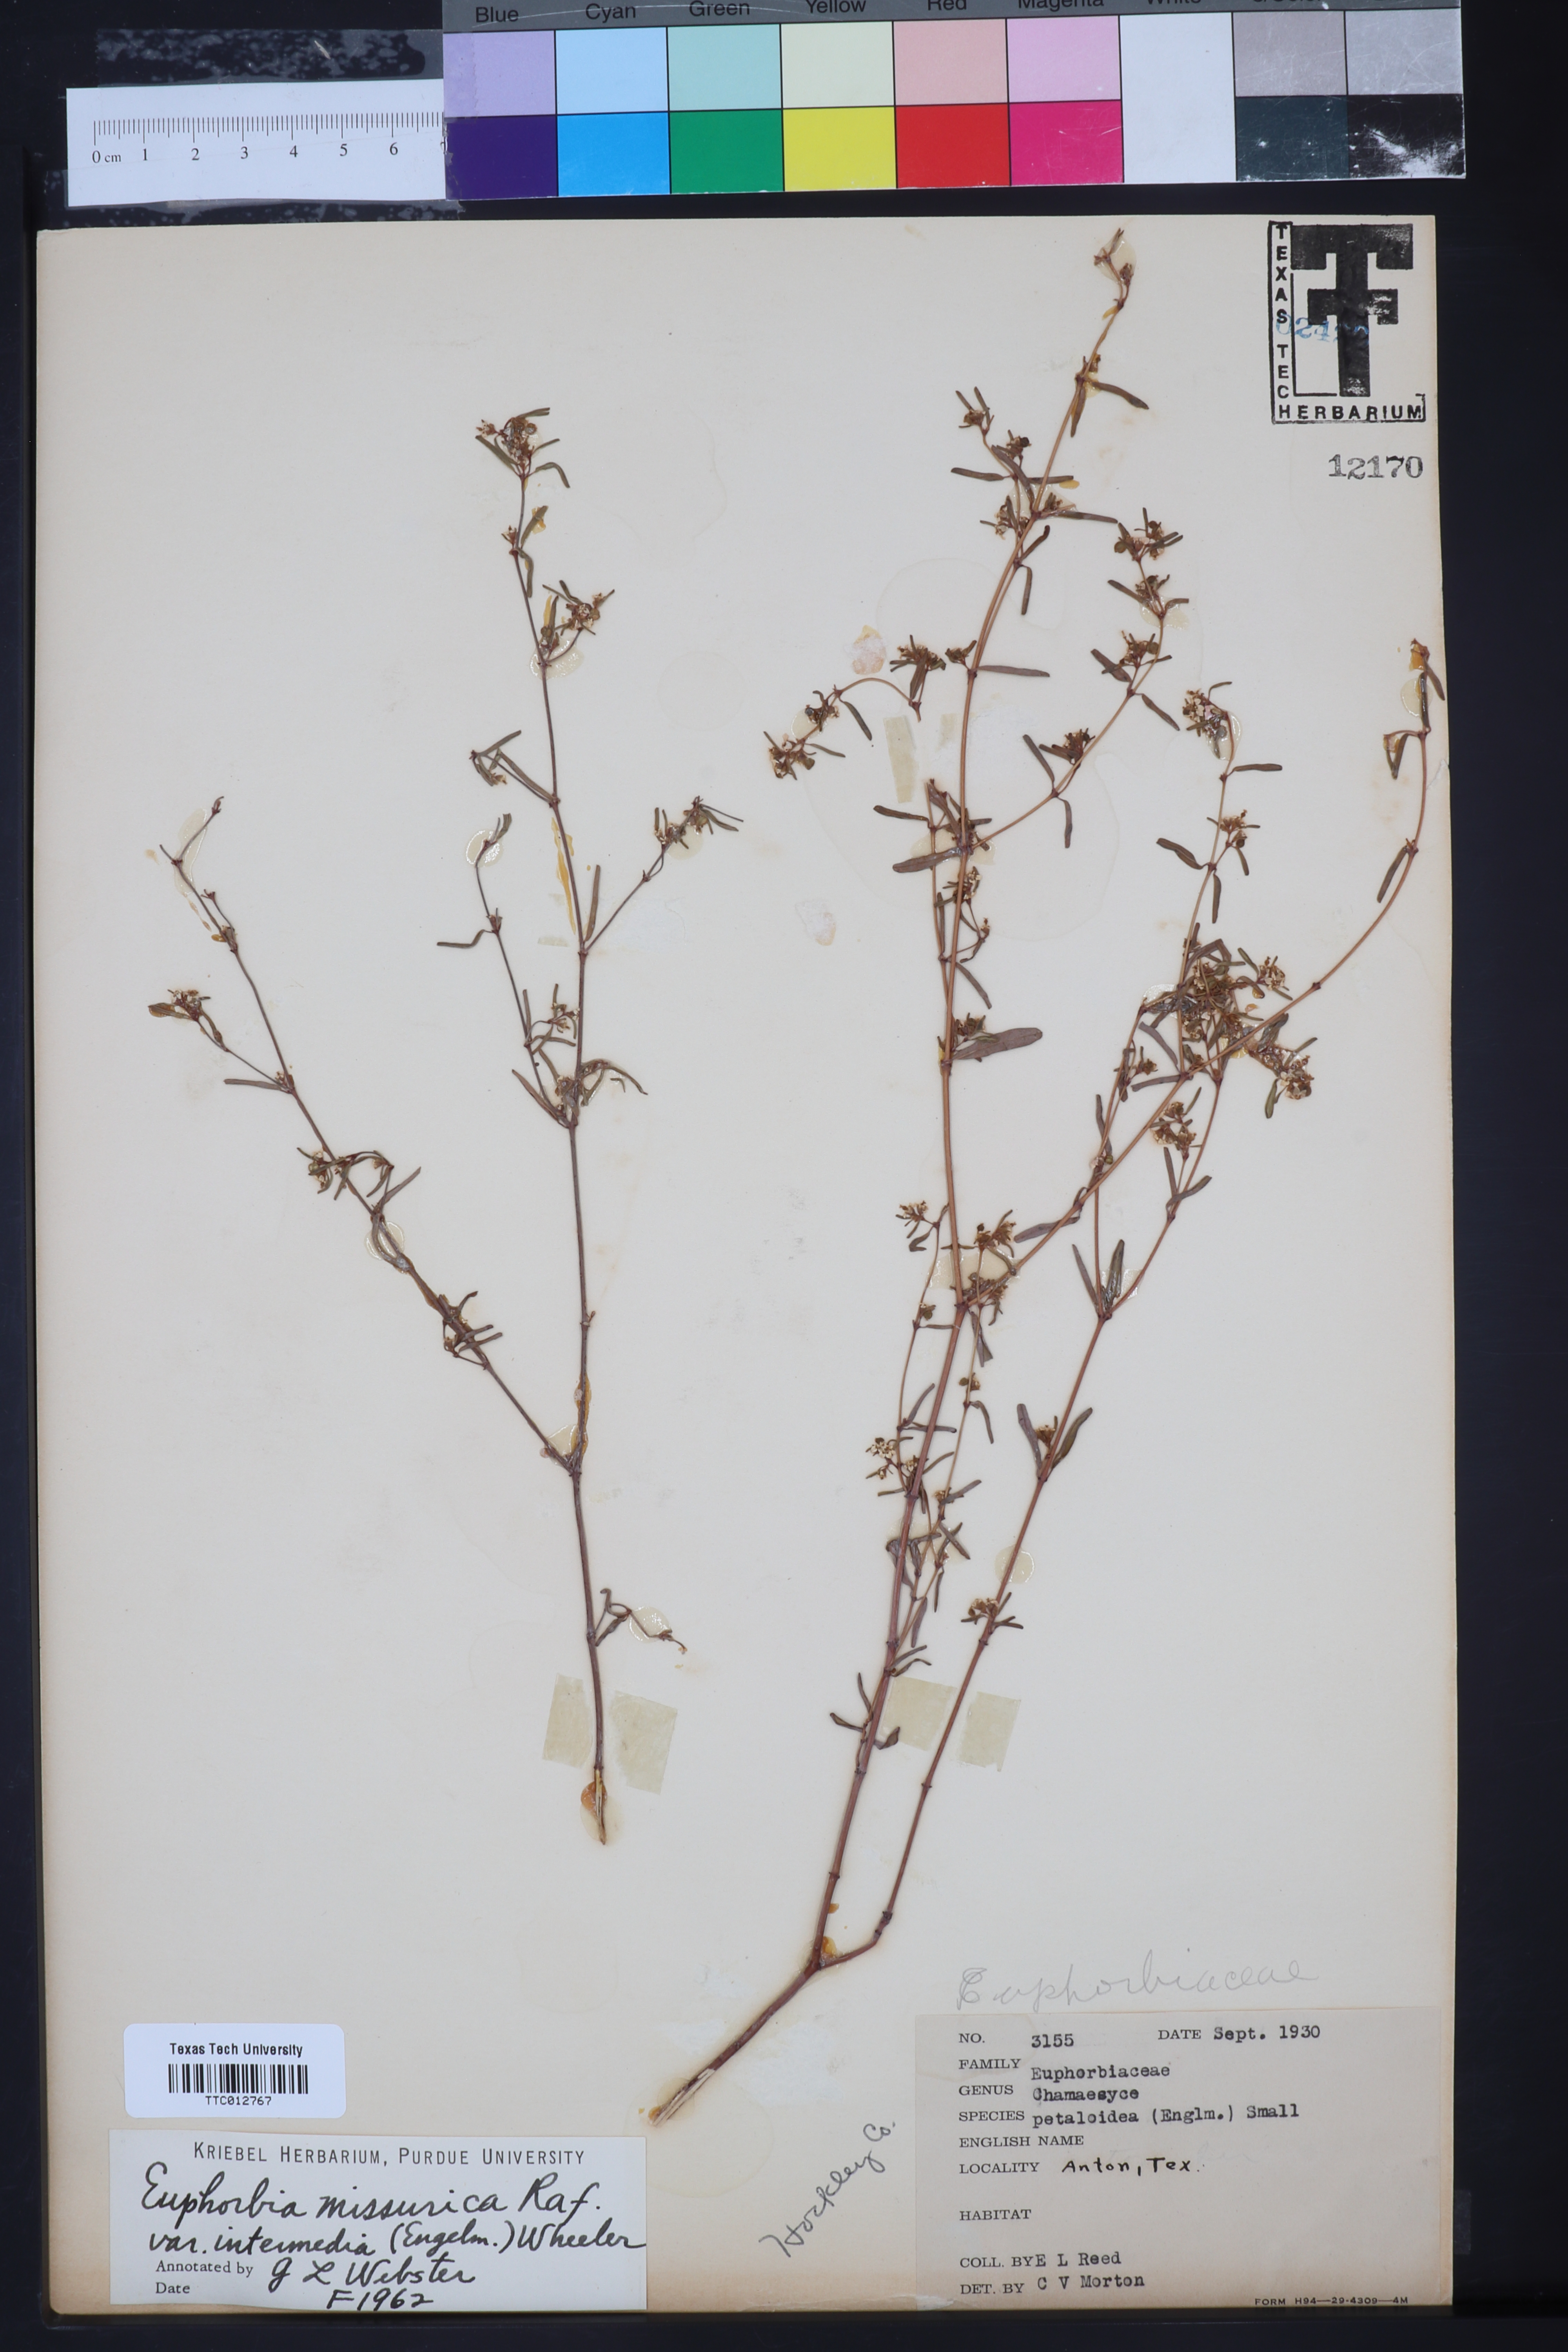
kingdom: Plantae
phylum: Tracheophyta
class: Magnoliopsida
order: Malpighiales
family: Euphorbiaceae
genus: Euphorbia
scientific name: Euphorbia missurica
